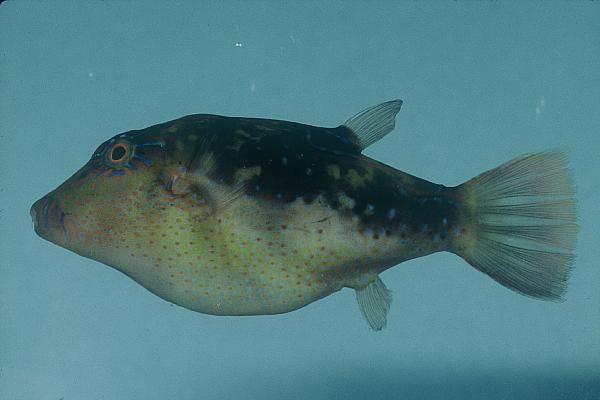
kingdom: Animalia
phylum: Chordata
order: Tetraodontiformes
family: Tetraodontidae
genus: Canthigaster
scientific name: Canthigaster bennetti
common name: Bennett's pufferfish
